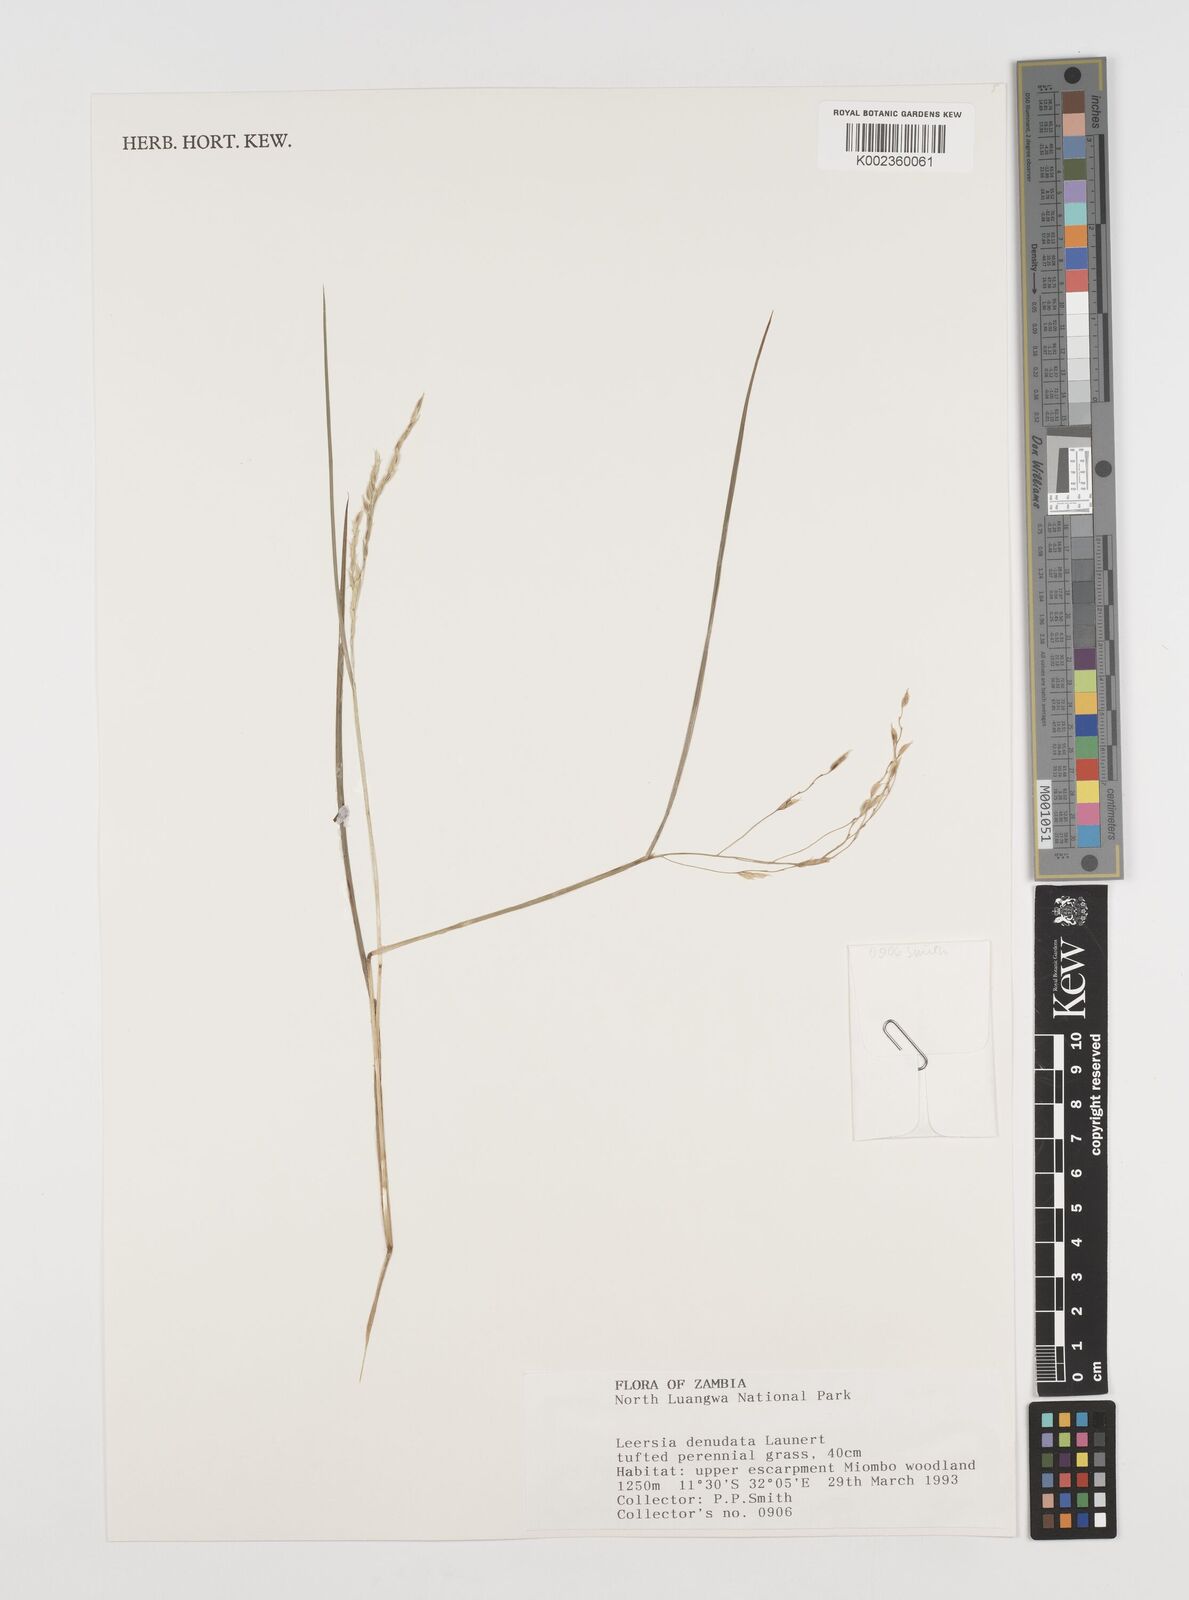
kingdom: Plantae
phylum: Tracheophyta
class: Liliopsida
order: Poales
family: Poaceae
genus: Leersia
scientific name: Leersia denudata
